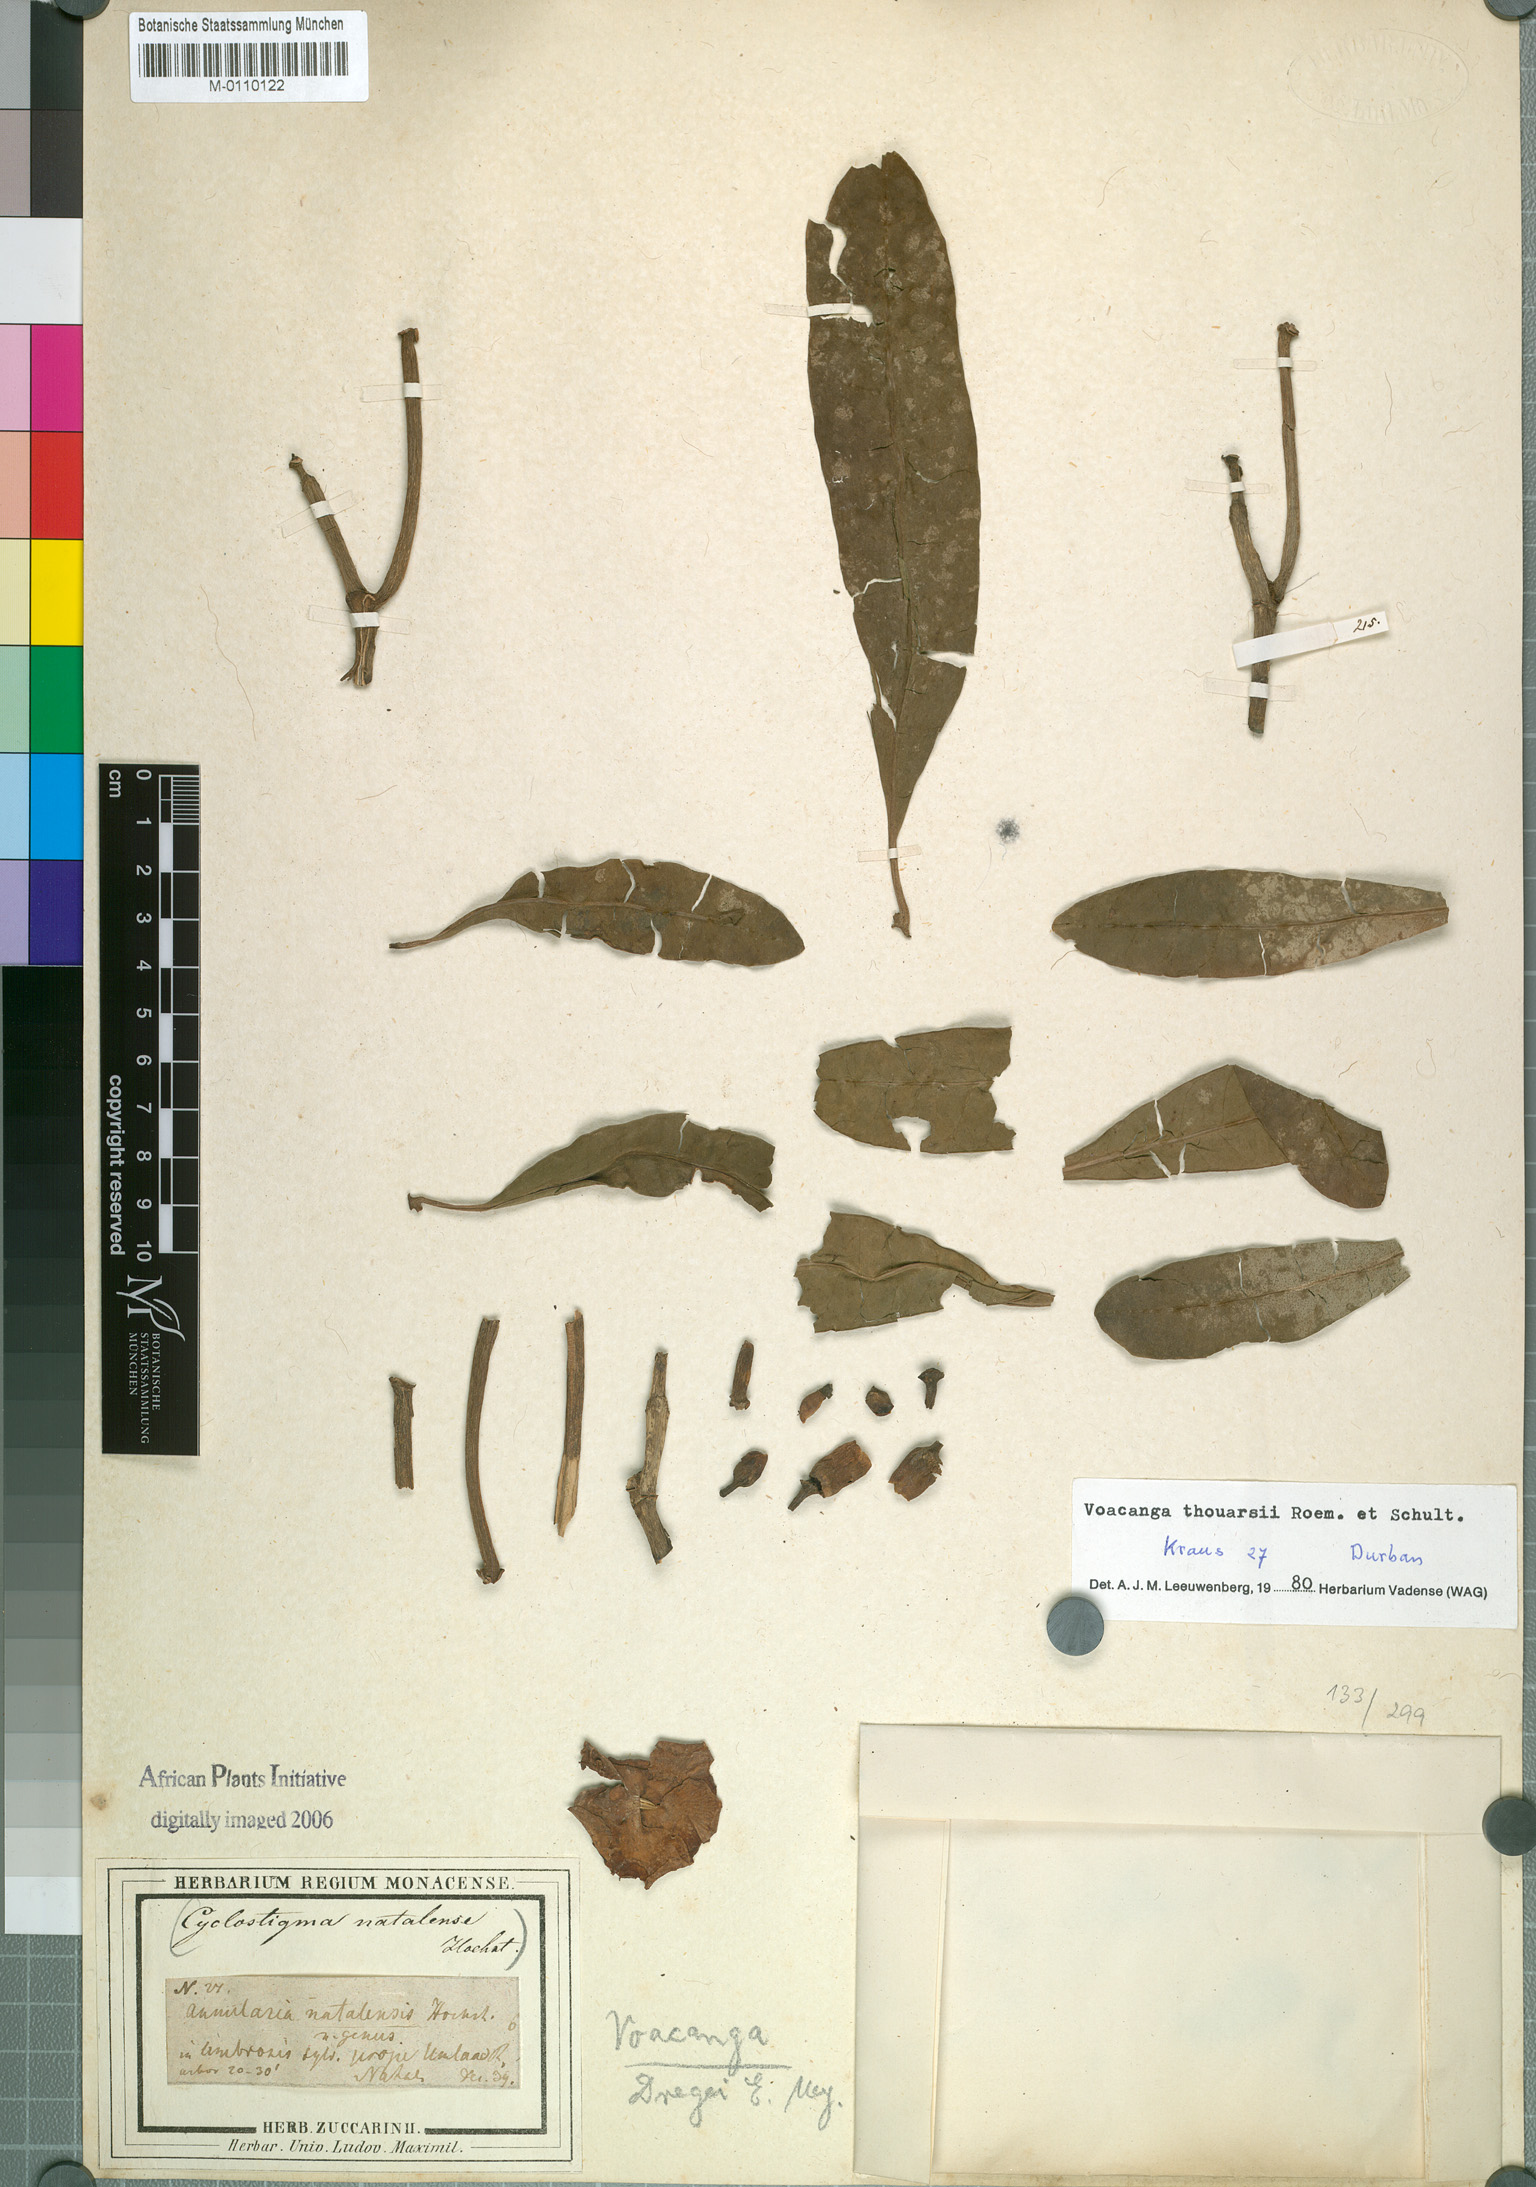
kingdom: Plantae
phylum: Tracheophyta
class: Magnoliopsida
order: Gentianales
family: Apocynaceae
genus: Voacanga
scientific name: Voacanga thouarsii
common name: Wild frangipani
